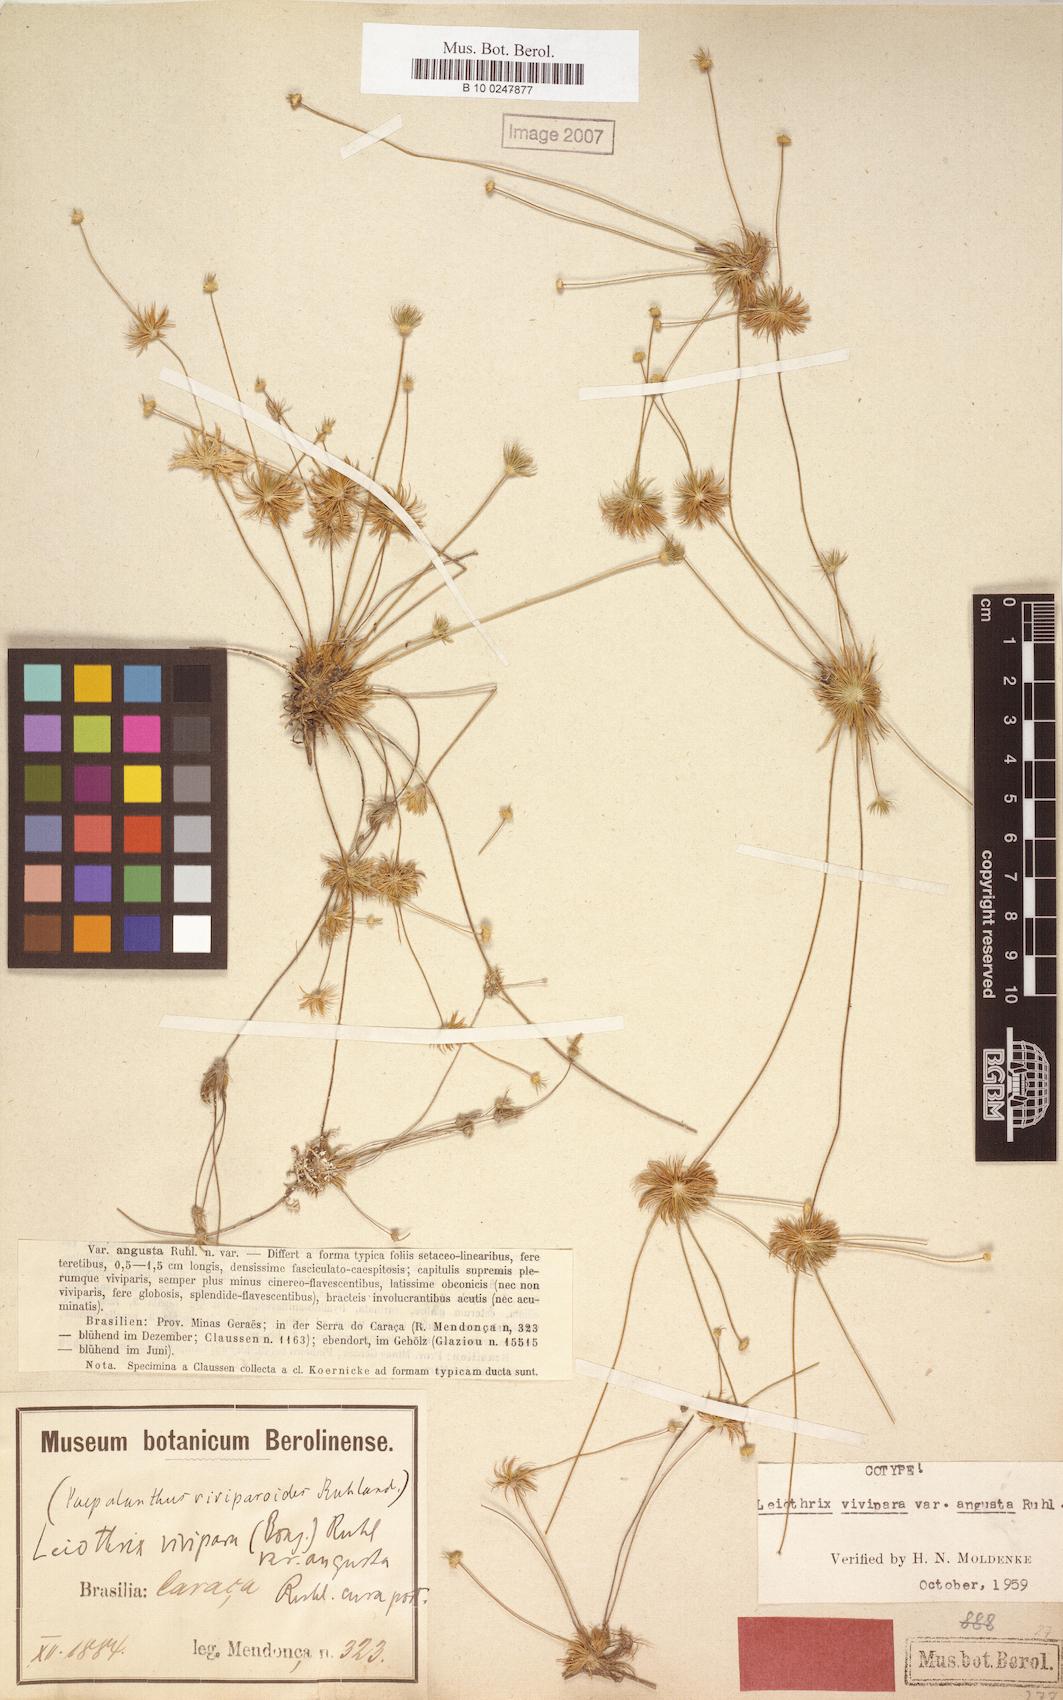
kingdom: Plantae
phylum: Tracheophyta
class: Liliopsida
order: Poales
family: Eriocaulaceae
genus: Leiothrix
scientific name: Leiothrix vivipara
